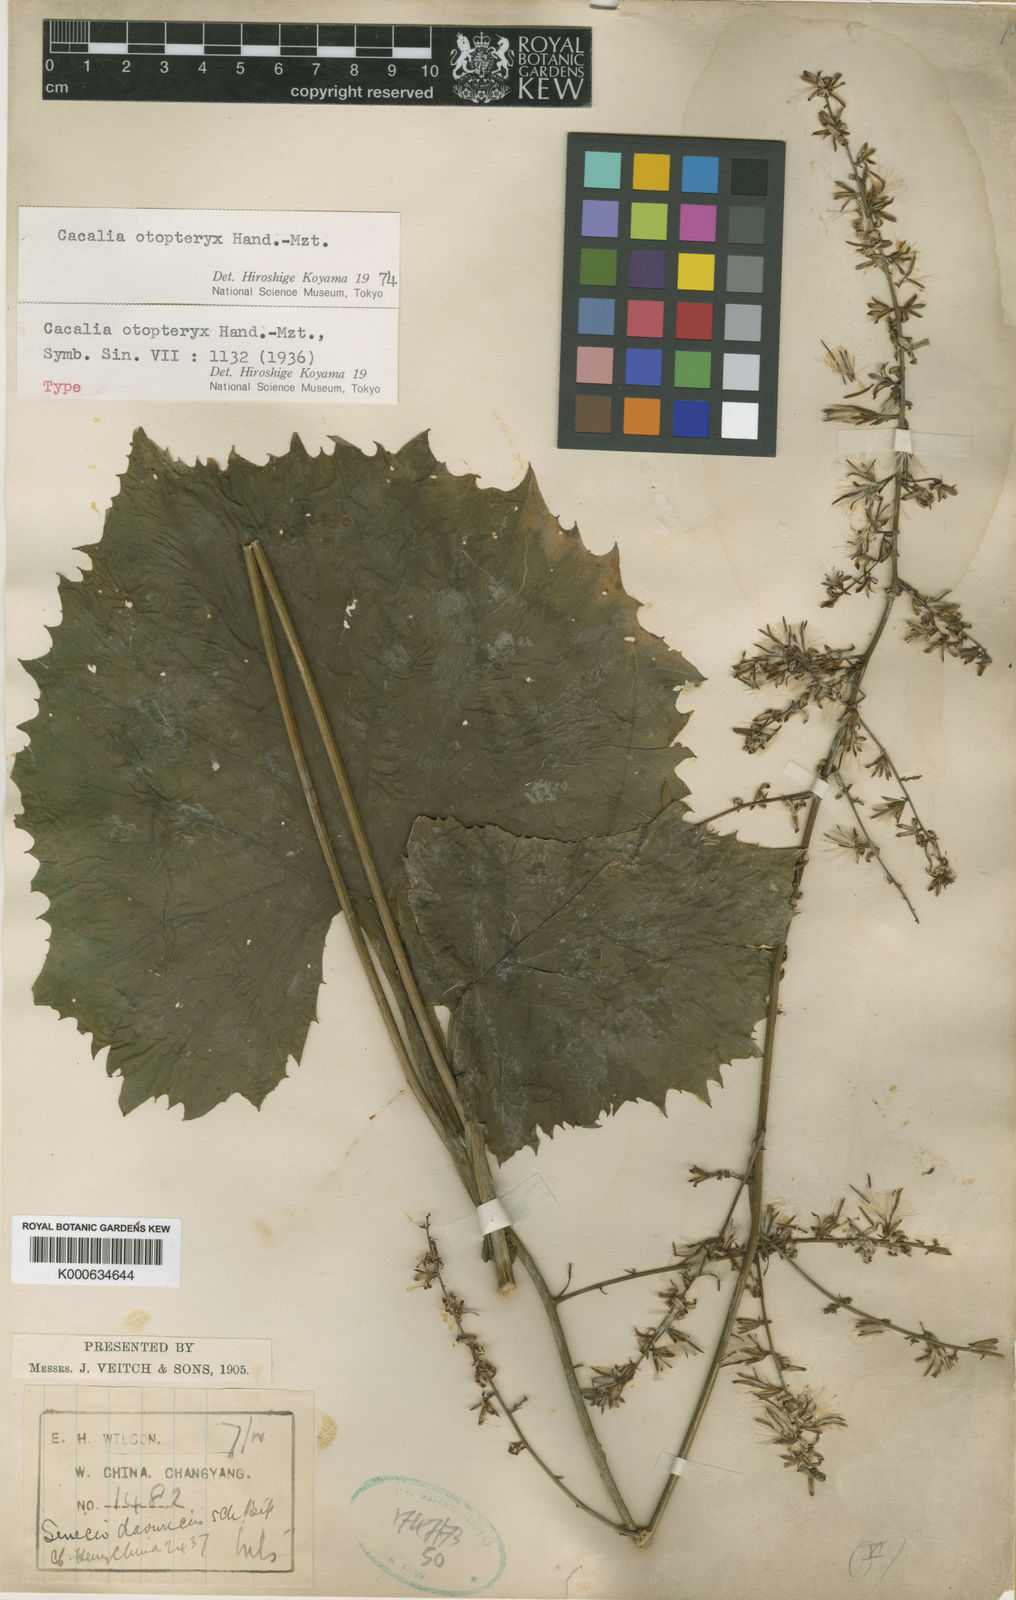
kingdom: Plantae
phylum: Tracheophyta
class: Magnoliopsida
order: Asterales
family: Asteraceae
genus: Parasenecio
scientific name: Parasenecio otopteryx
